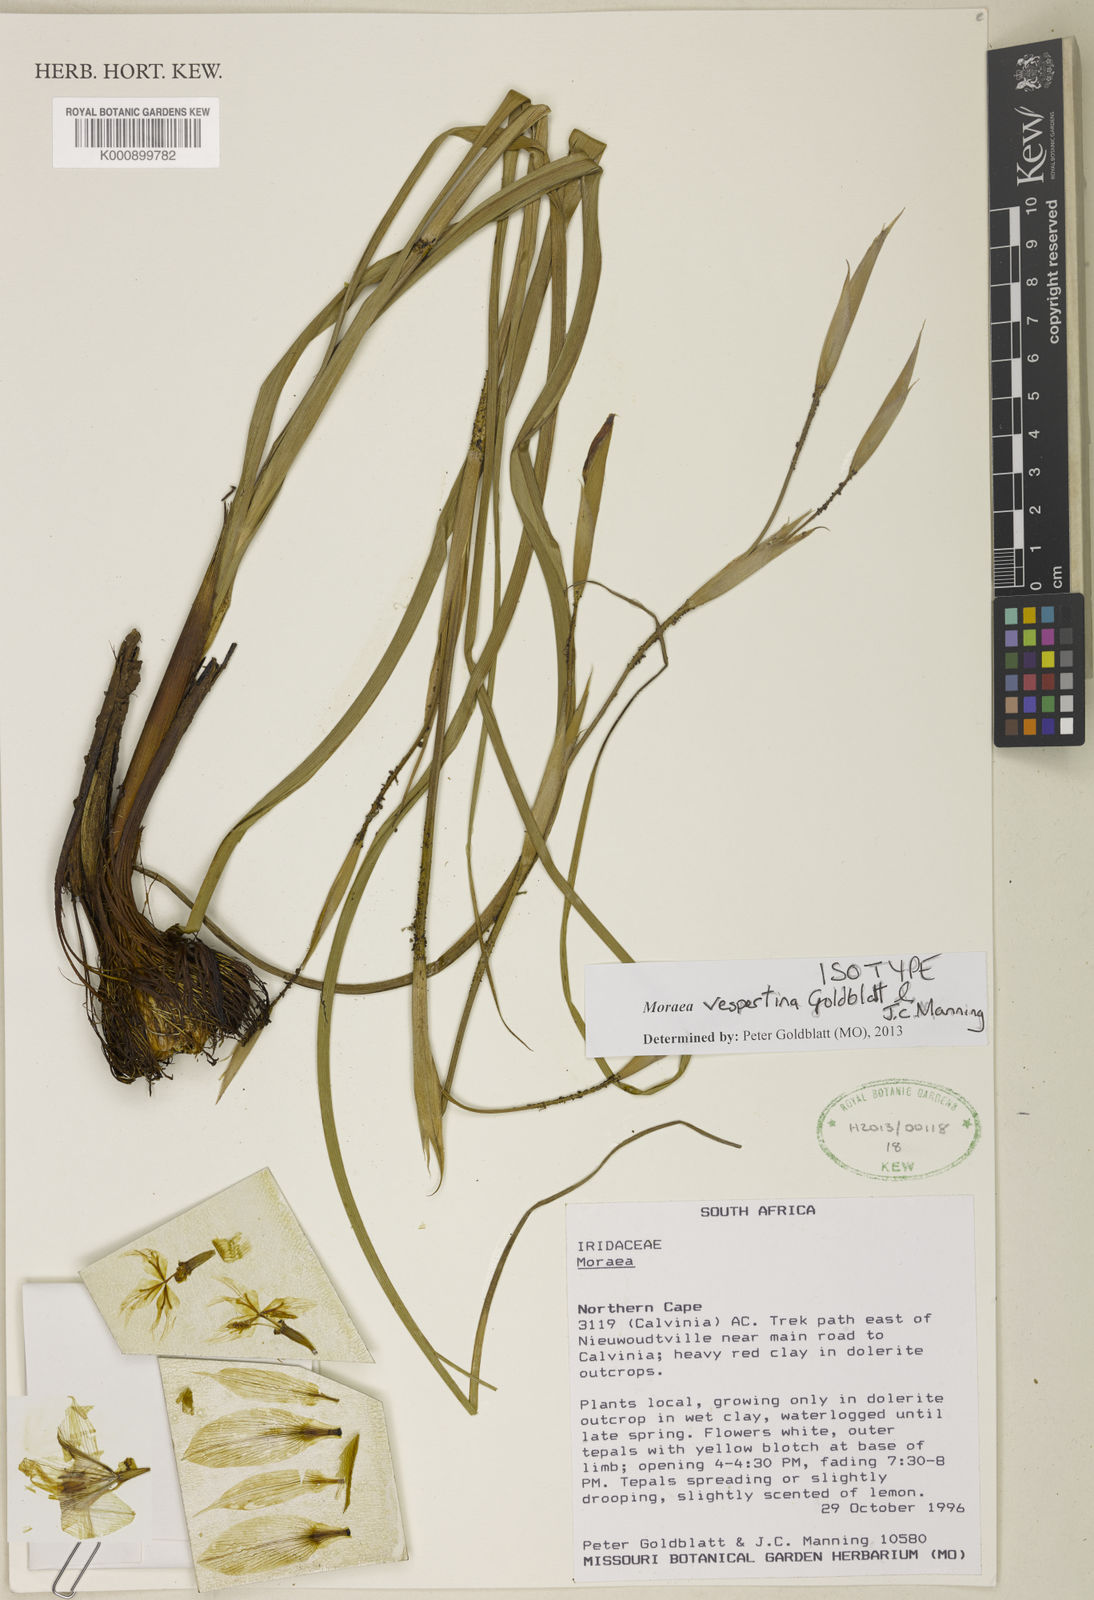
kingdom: Plantae
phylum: Tracheophyta
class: Liliopsida
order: Asparagales
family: Iridaceae
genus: Moraea
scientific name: Moraea vespertina
